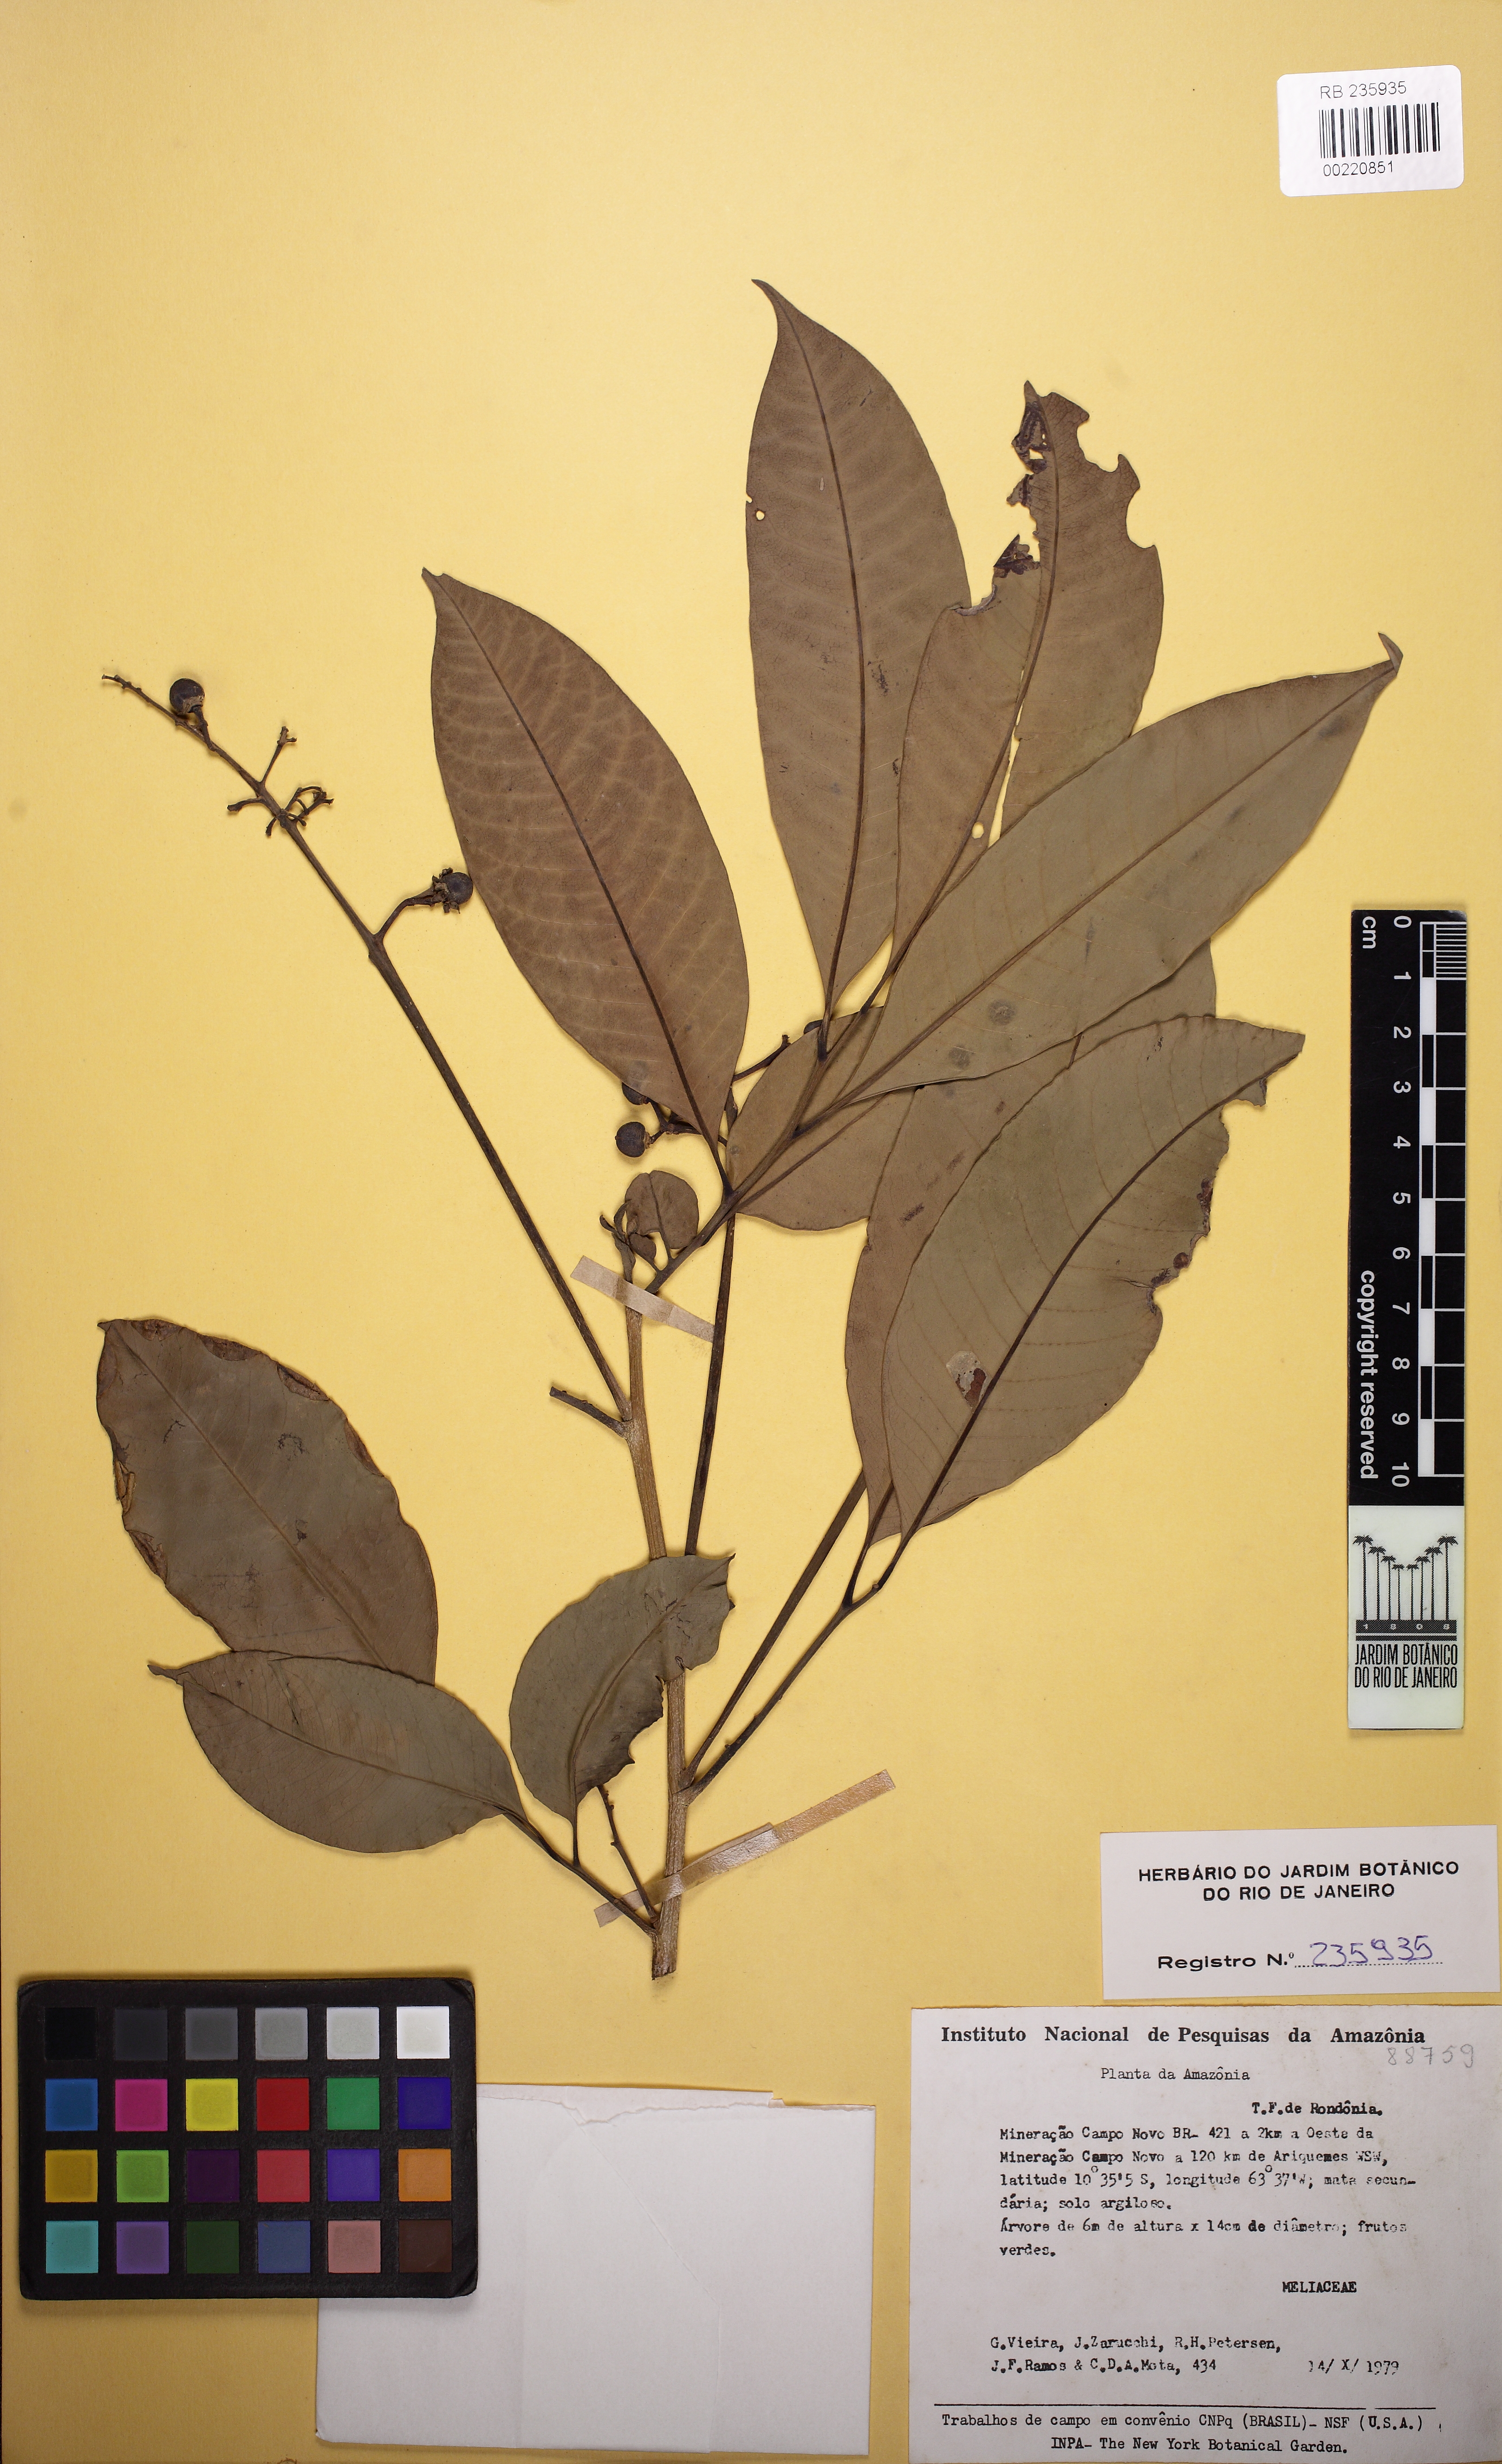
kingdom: Plantae
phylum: Tracheophyta
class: Magnoliopsida
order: Sapindales
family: Meliaceae
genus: Trichilia
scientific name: Trichilia pleeana
